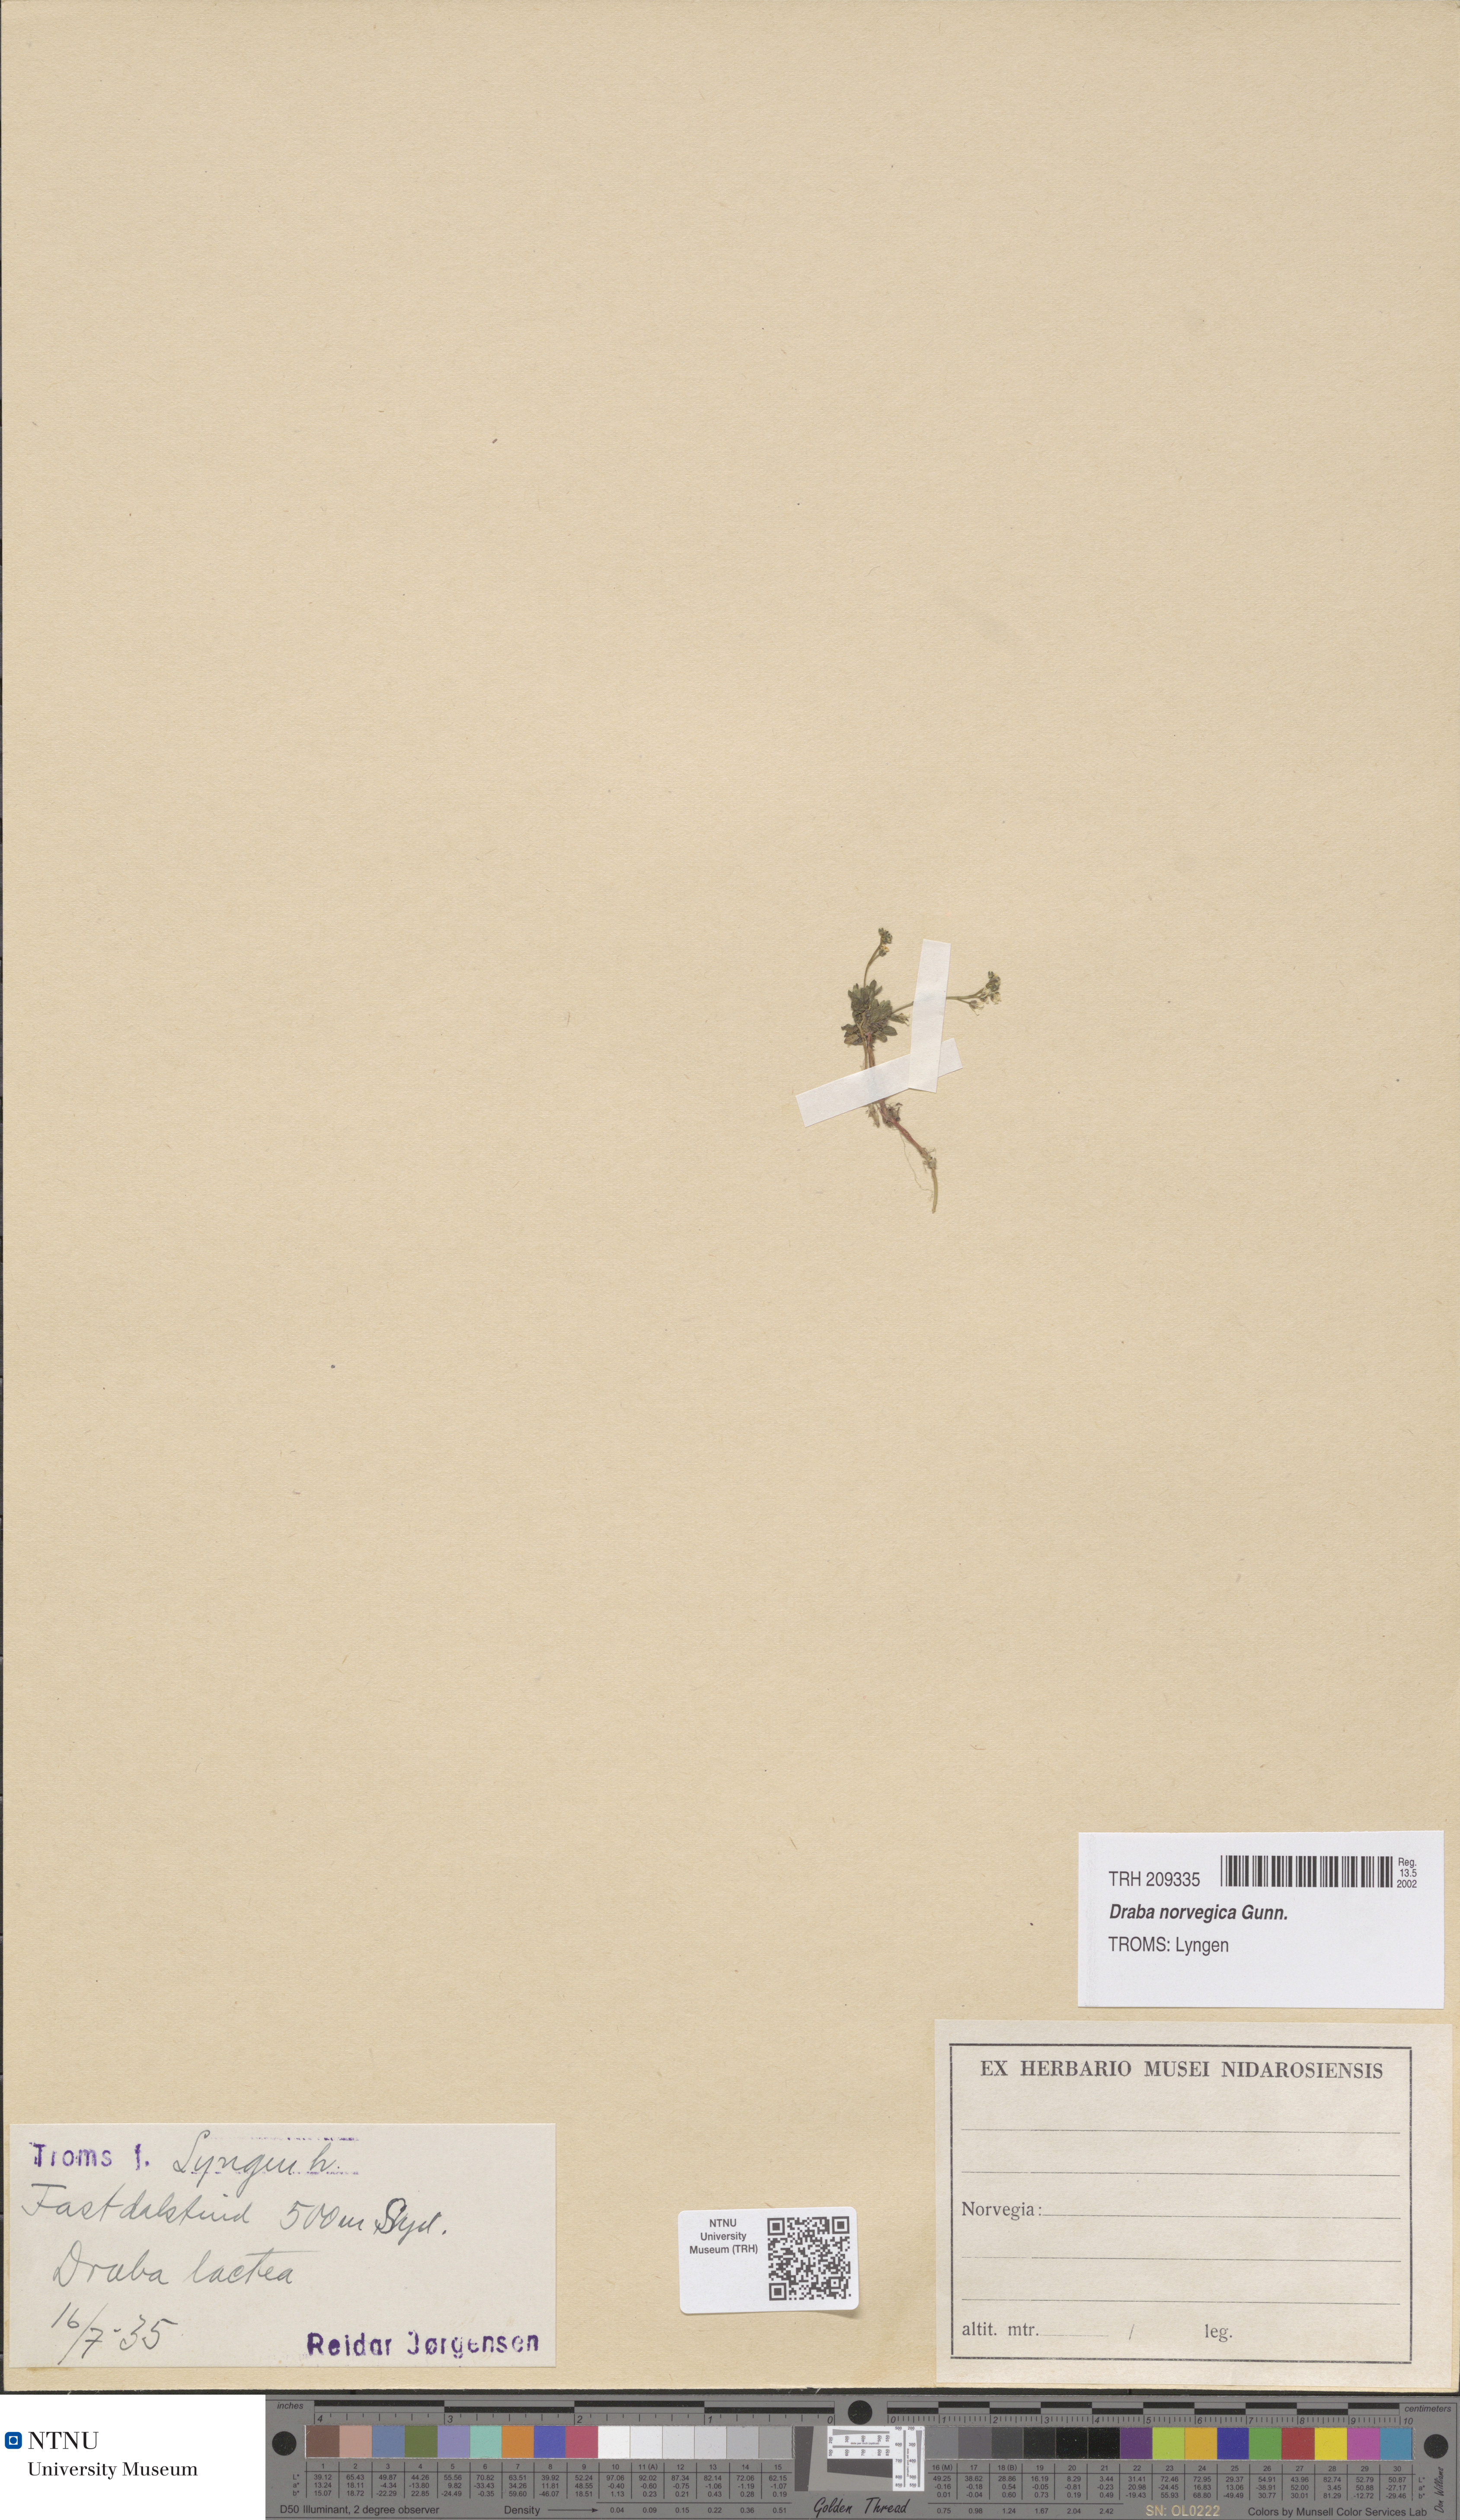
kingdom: Plantae
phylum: Tracheophyta
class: Magnoliopsida
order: Brassicales
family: Brassicaceae
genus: Draba
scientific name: Draba norvegica
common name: Rock whitlowgrass
